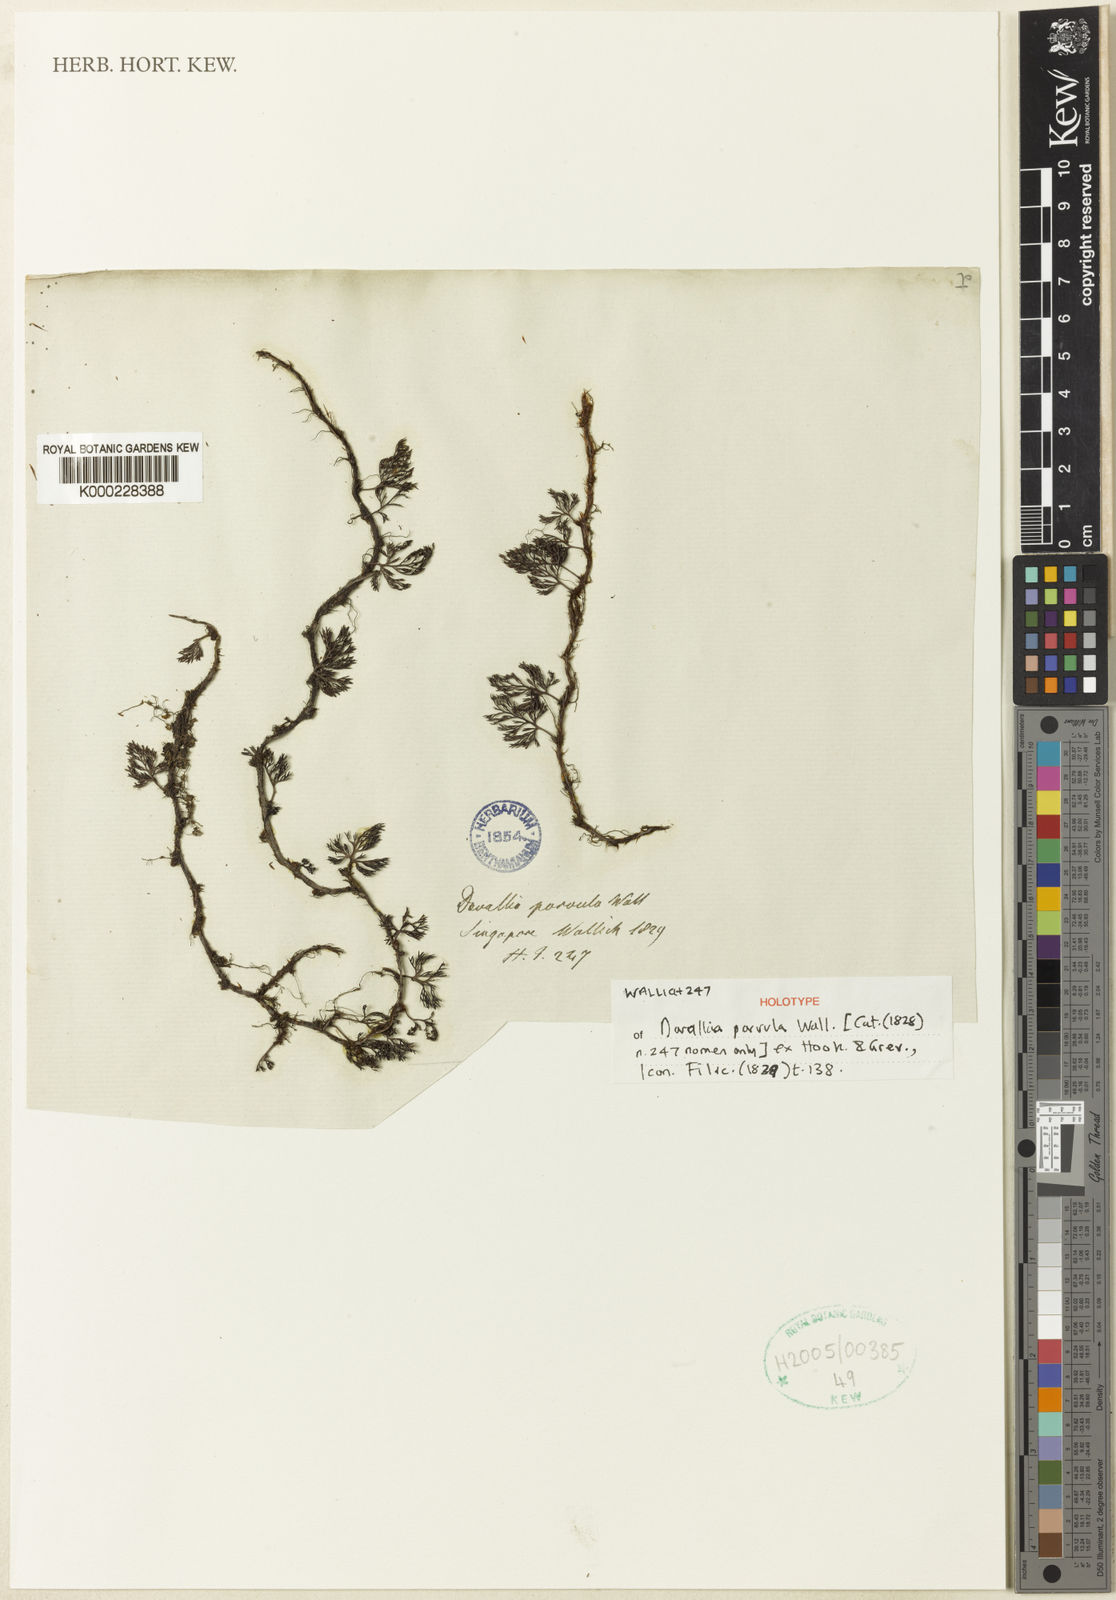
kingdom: Plantae
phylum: Tracheophyta
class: Polypodiopsida
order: Polypodiales
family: Davalliaceae
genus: Davallia
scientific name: Davallia parvula
